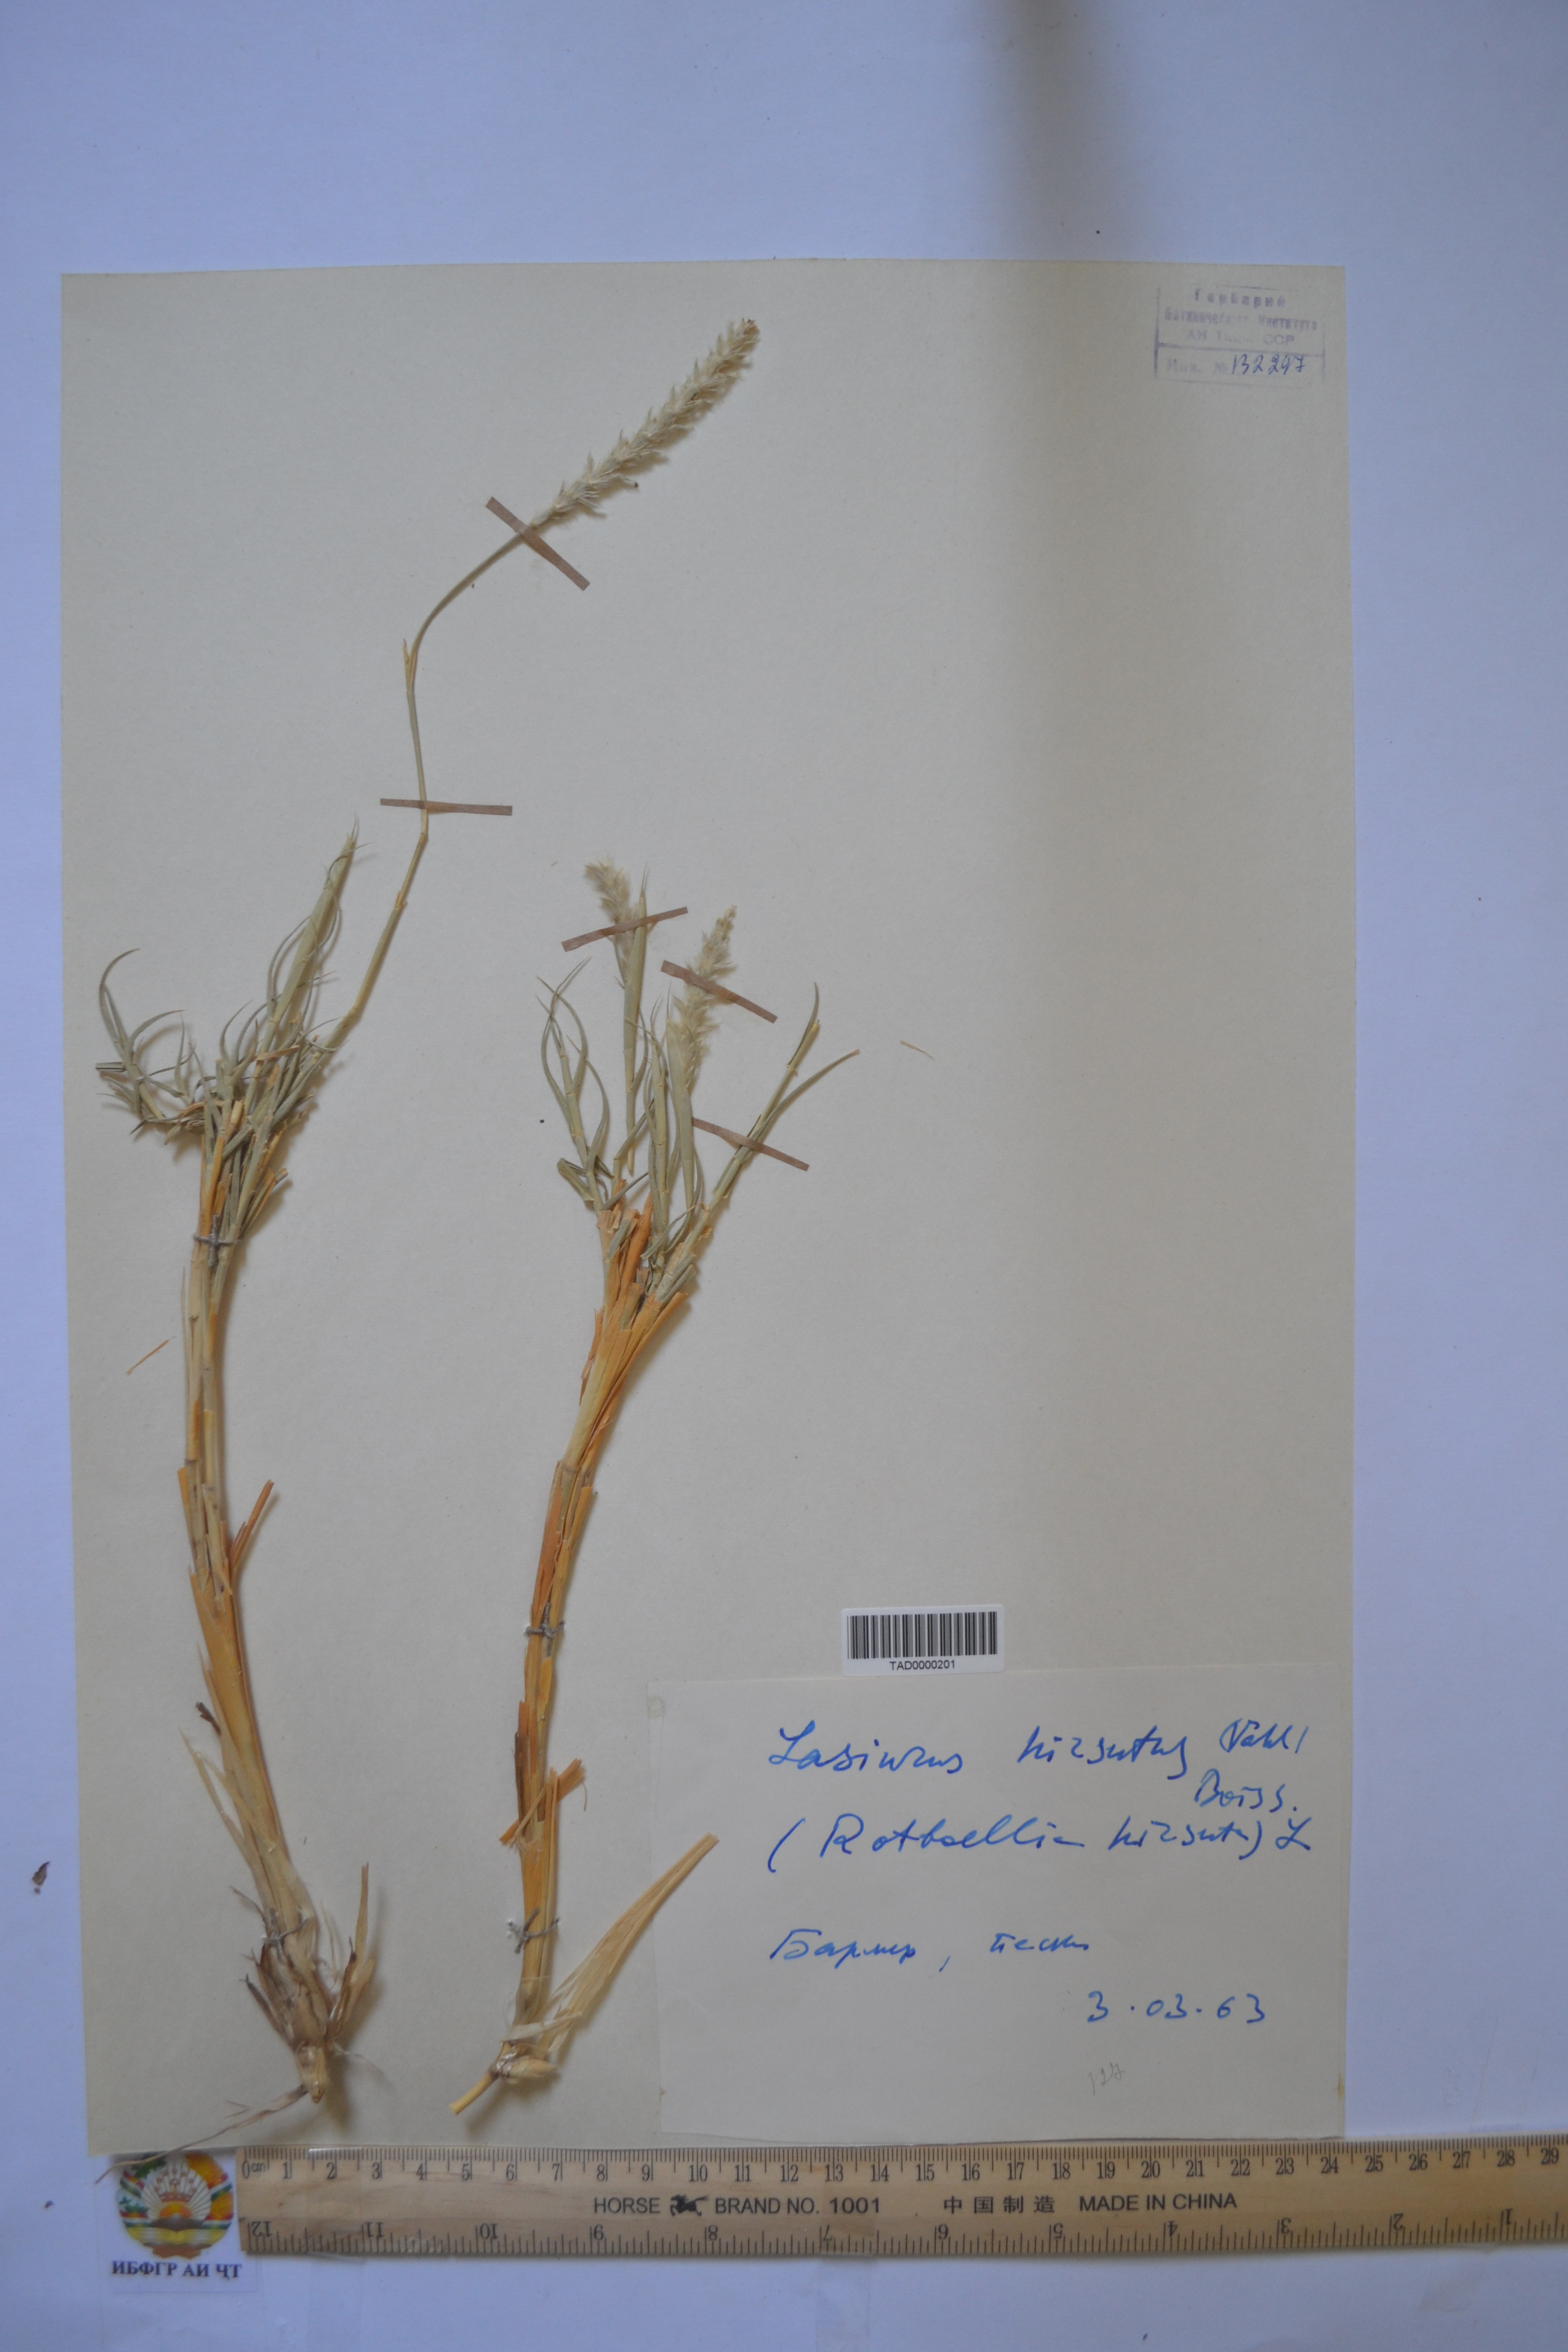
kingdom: Plantae
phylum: Tracheophyta
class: Liliopsida
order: Poales
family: Poaceae
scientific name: Poaceae
